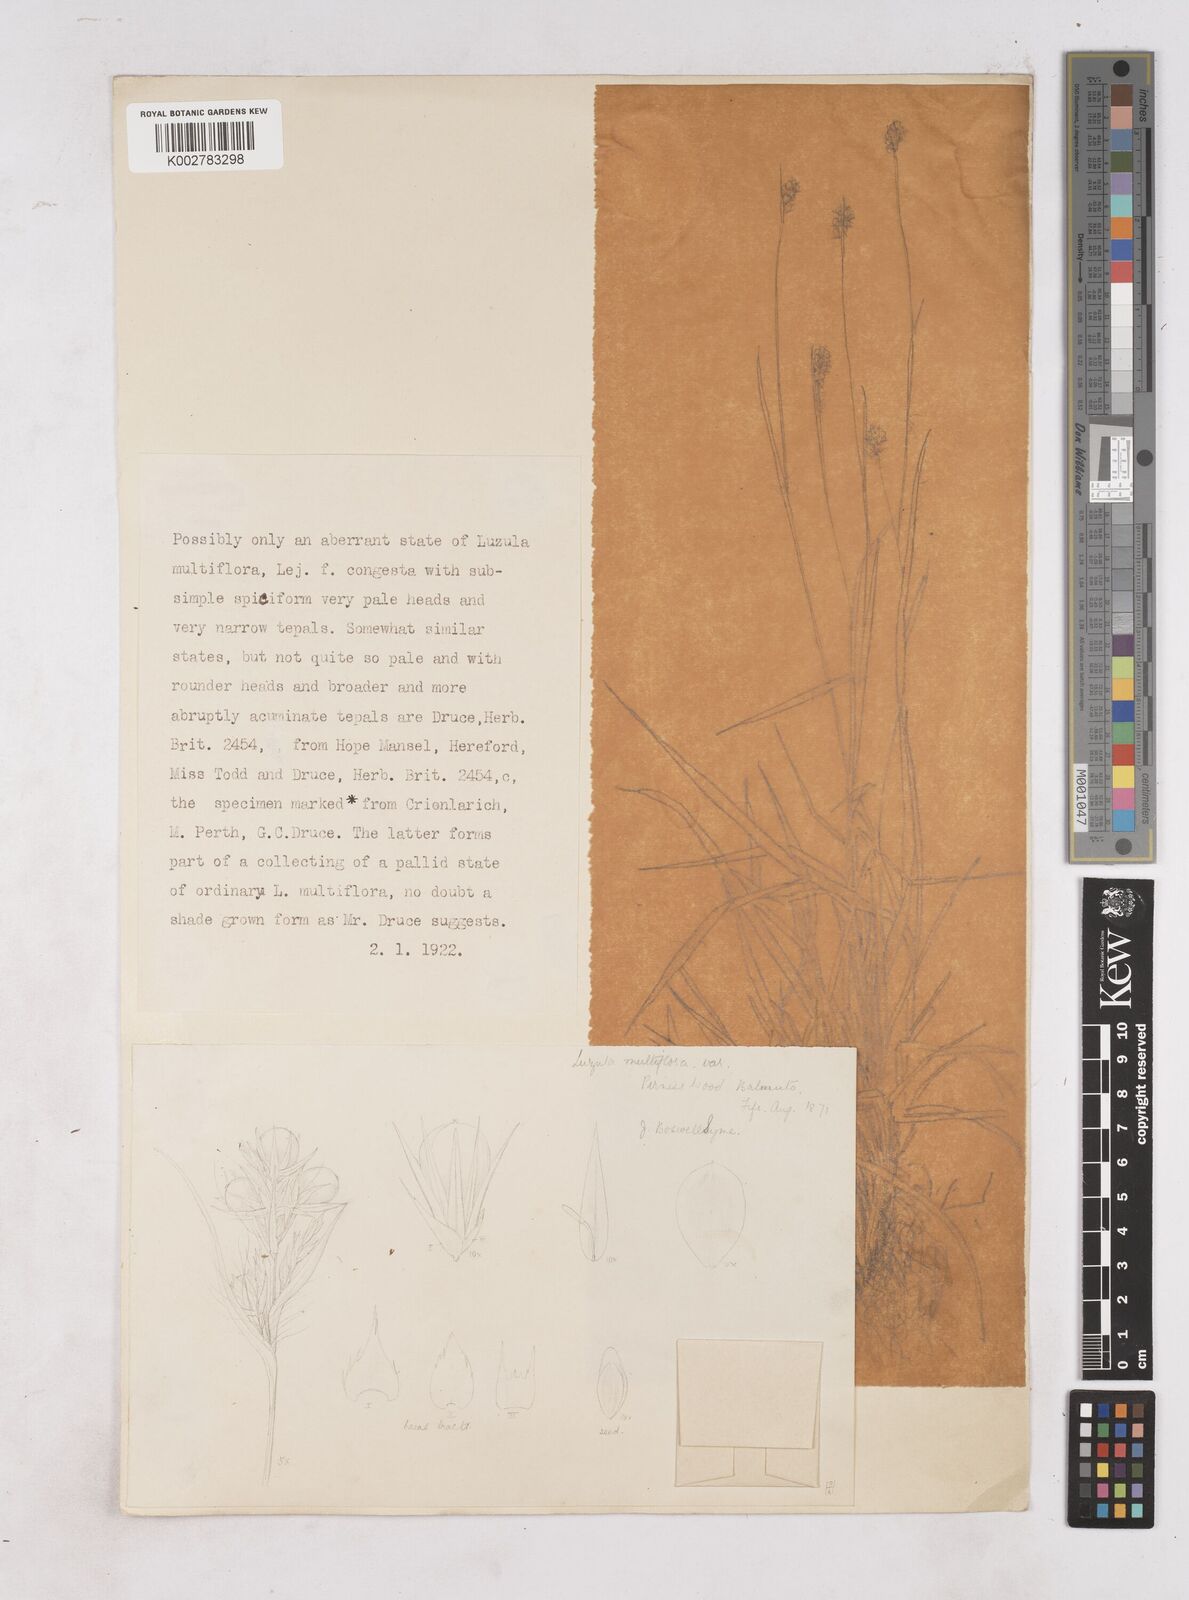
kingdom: Plantae
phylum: Tracheophyta
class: Liliopsida
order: Poales
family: Juncaceae
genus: Luzula
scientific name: Luzula multiflora
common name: Heath wood-rush
